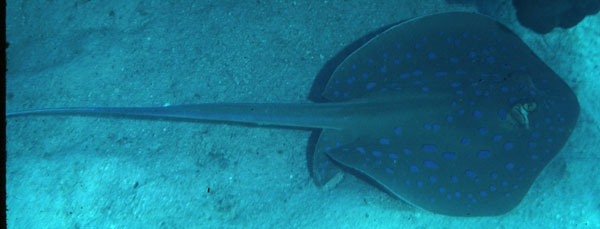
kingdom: Animalia
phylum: Chordata
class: Elasmobranchii
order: Myliobatiformes
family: Dasyatidae
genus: Taeniura
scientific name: Taeniura lymma
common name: Bluespotted ribbontail ray
